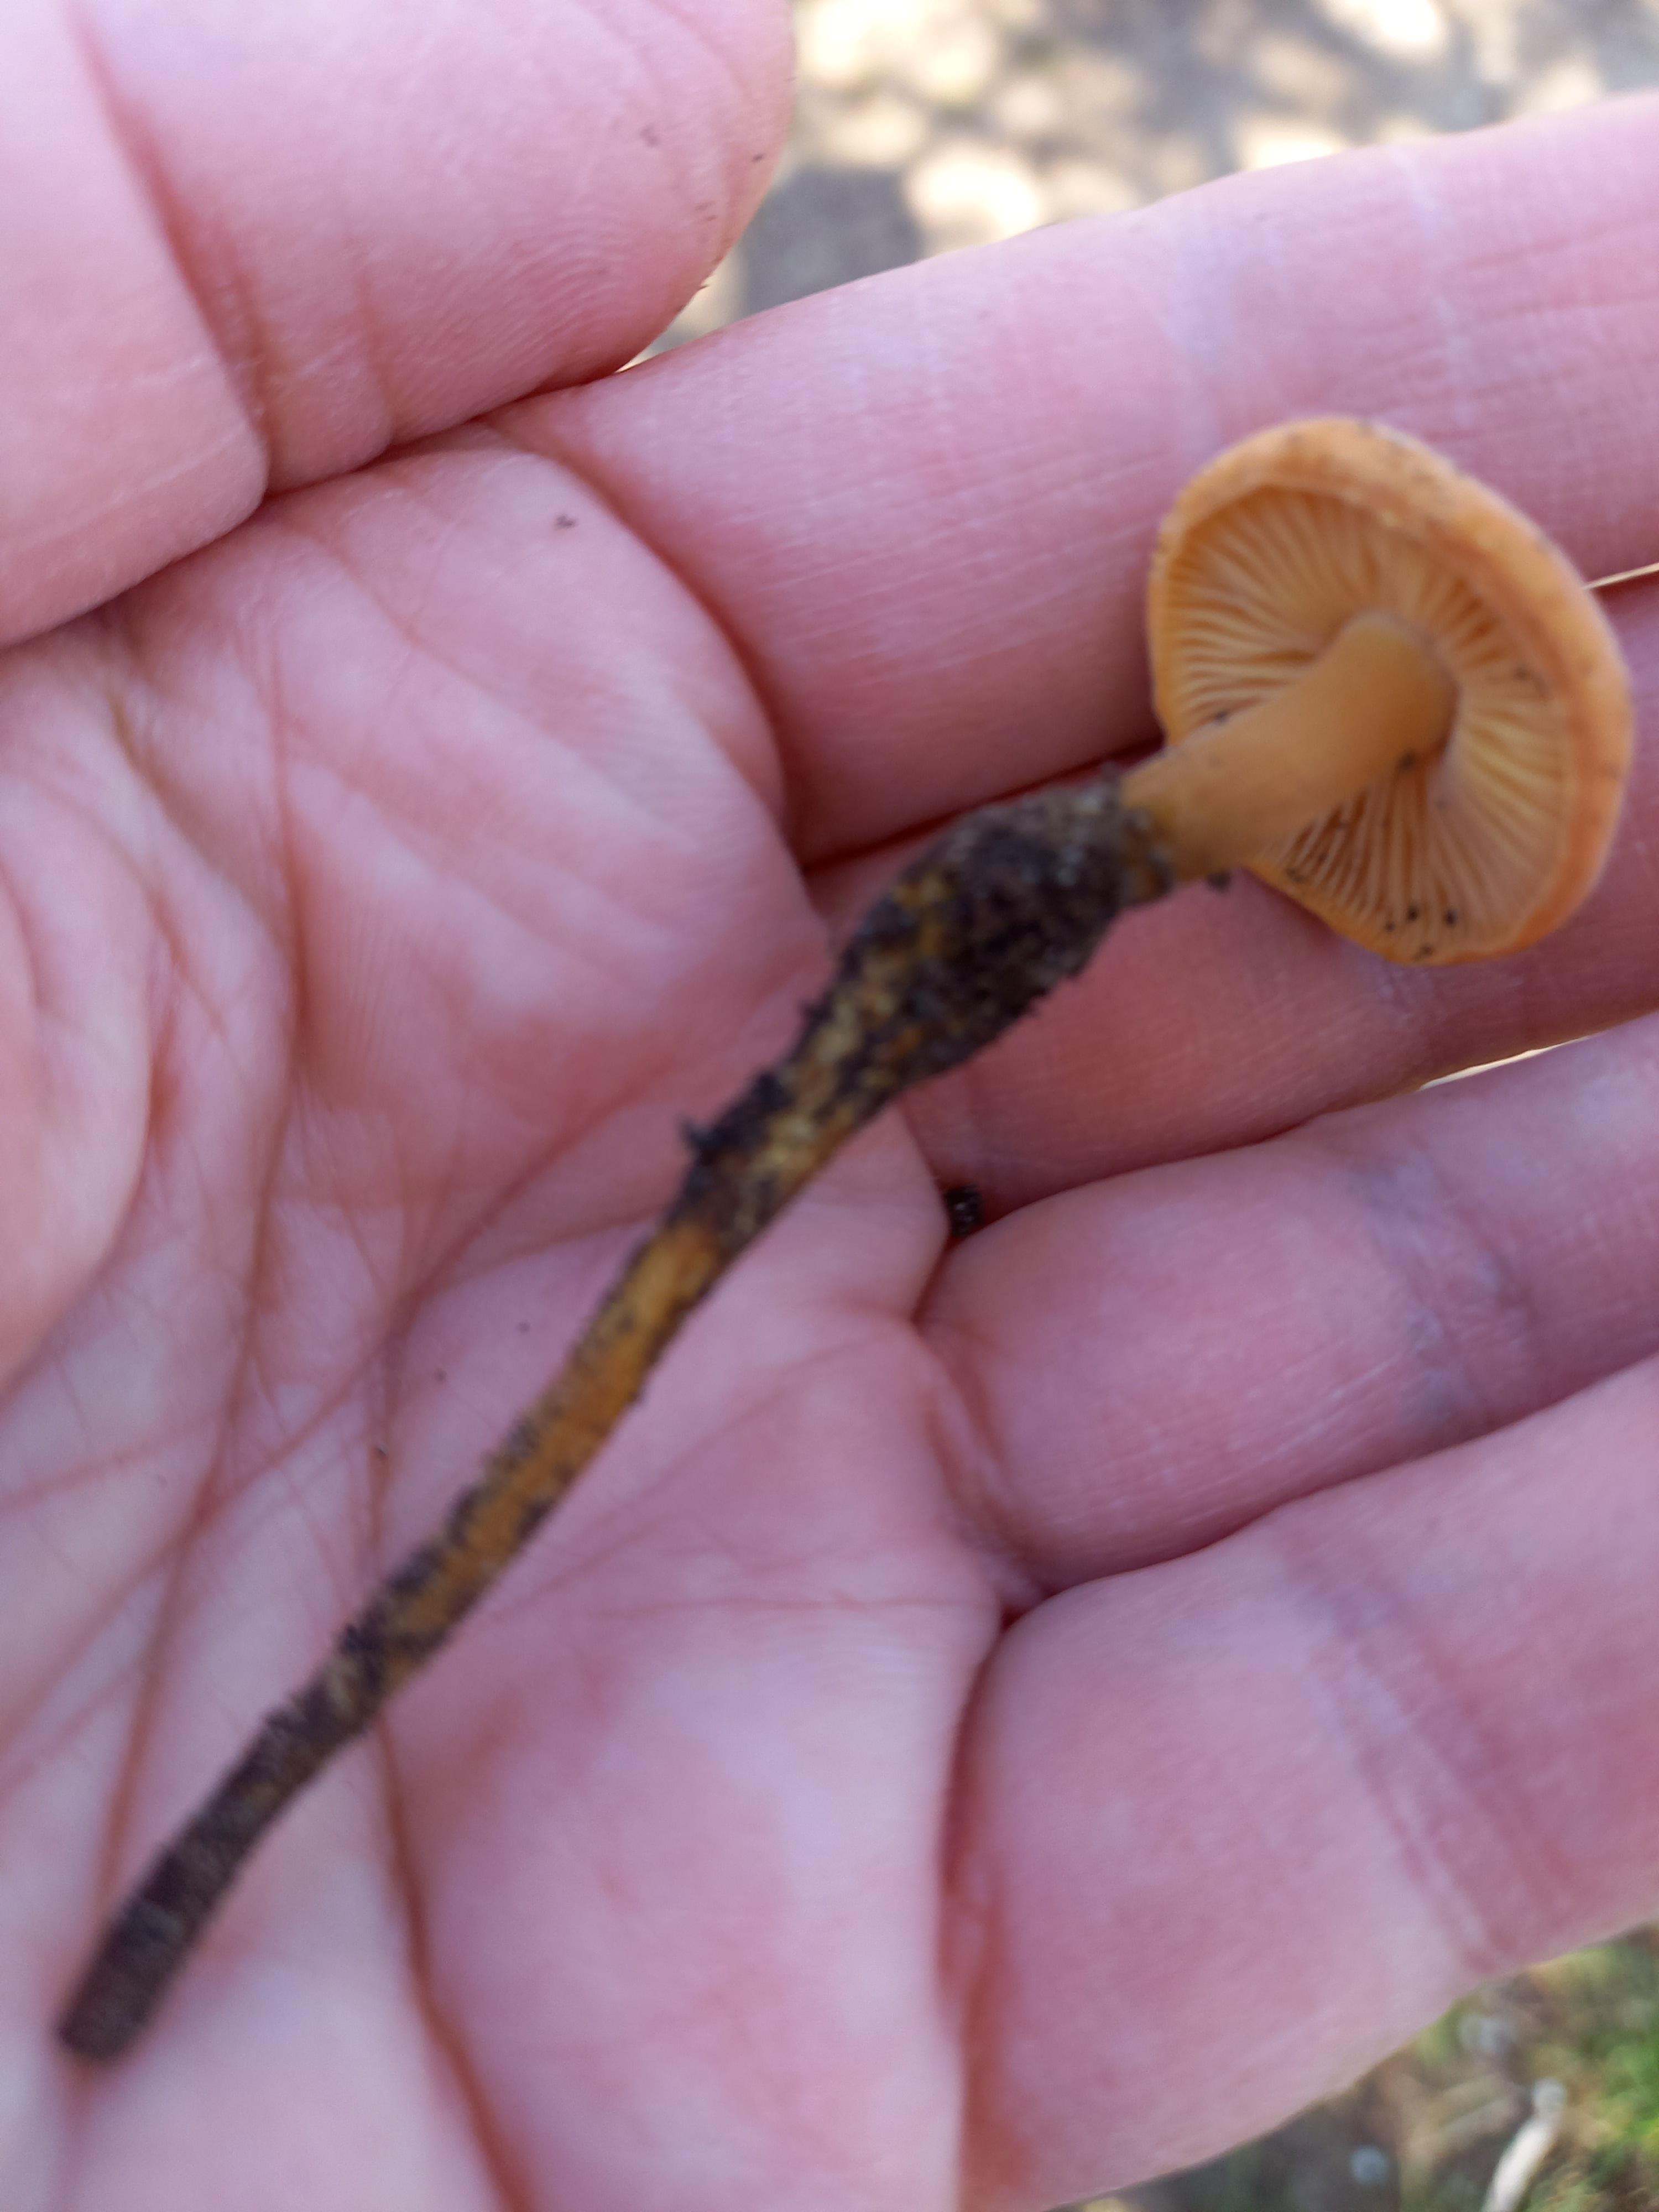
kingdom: Fungi
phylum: Basidiomycota
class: Agaricomycetes
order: Agaricales
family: Physalacriaceae
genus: Flammulina
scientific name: Flammulina
